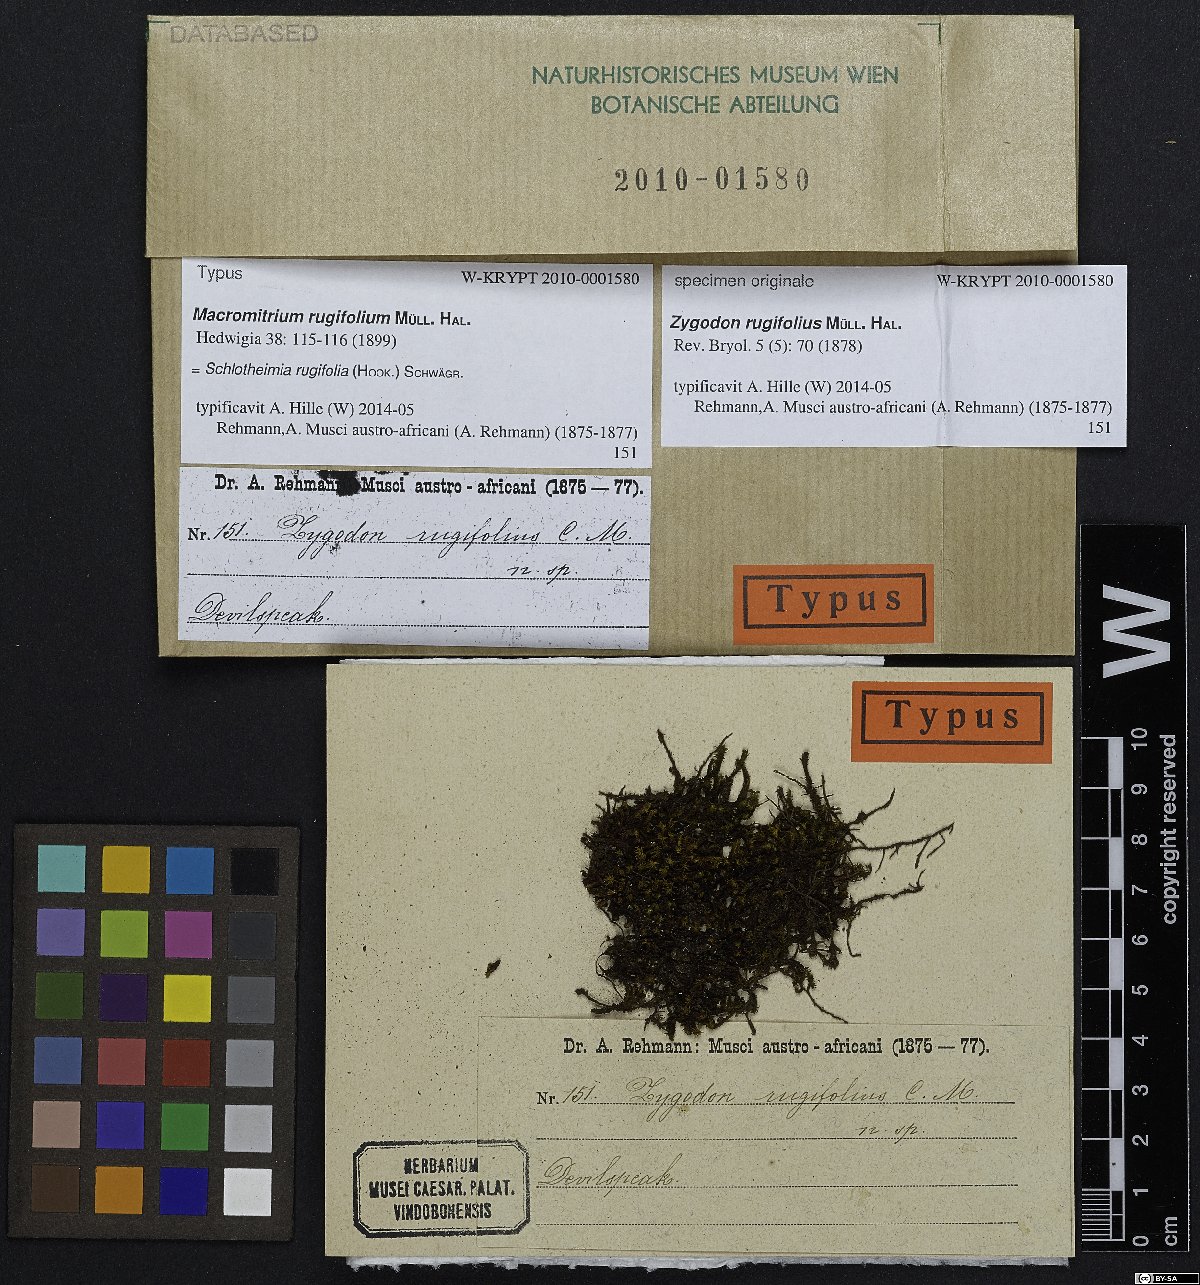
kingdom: Plantae
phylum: Bryophyta
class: Bryopsida
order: Orthotrichales
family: Orthotrichaceae
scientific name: Orthotrichaceae
